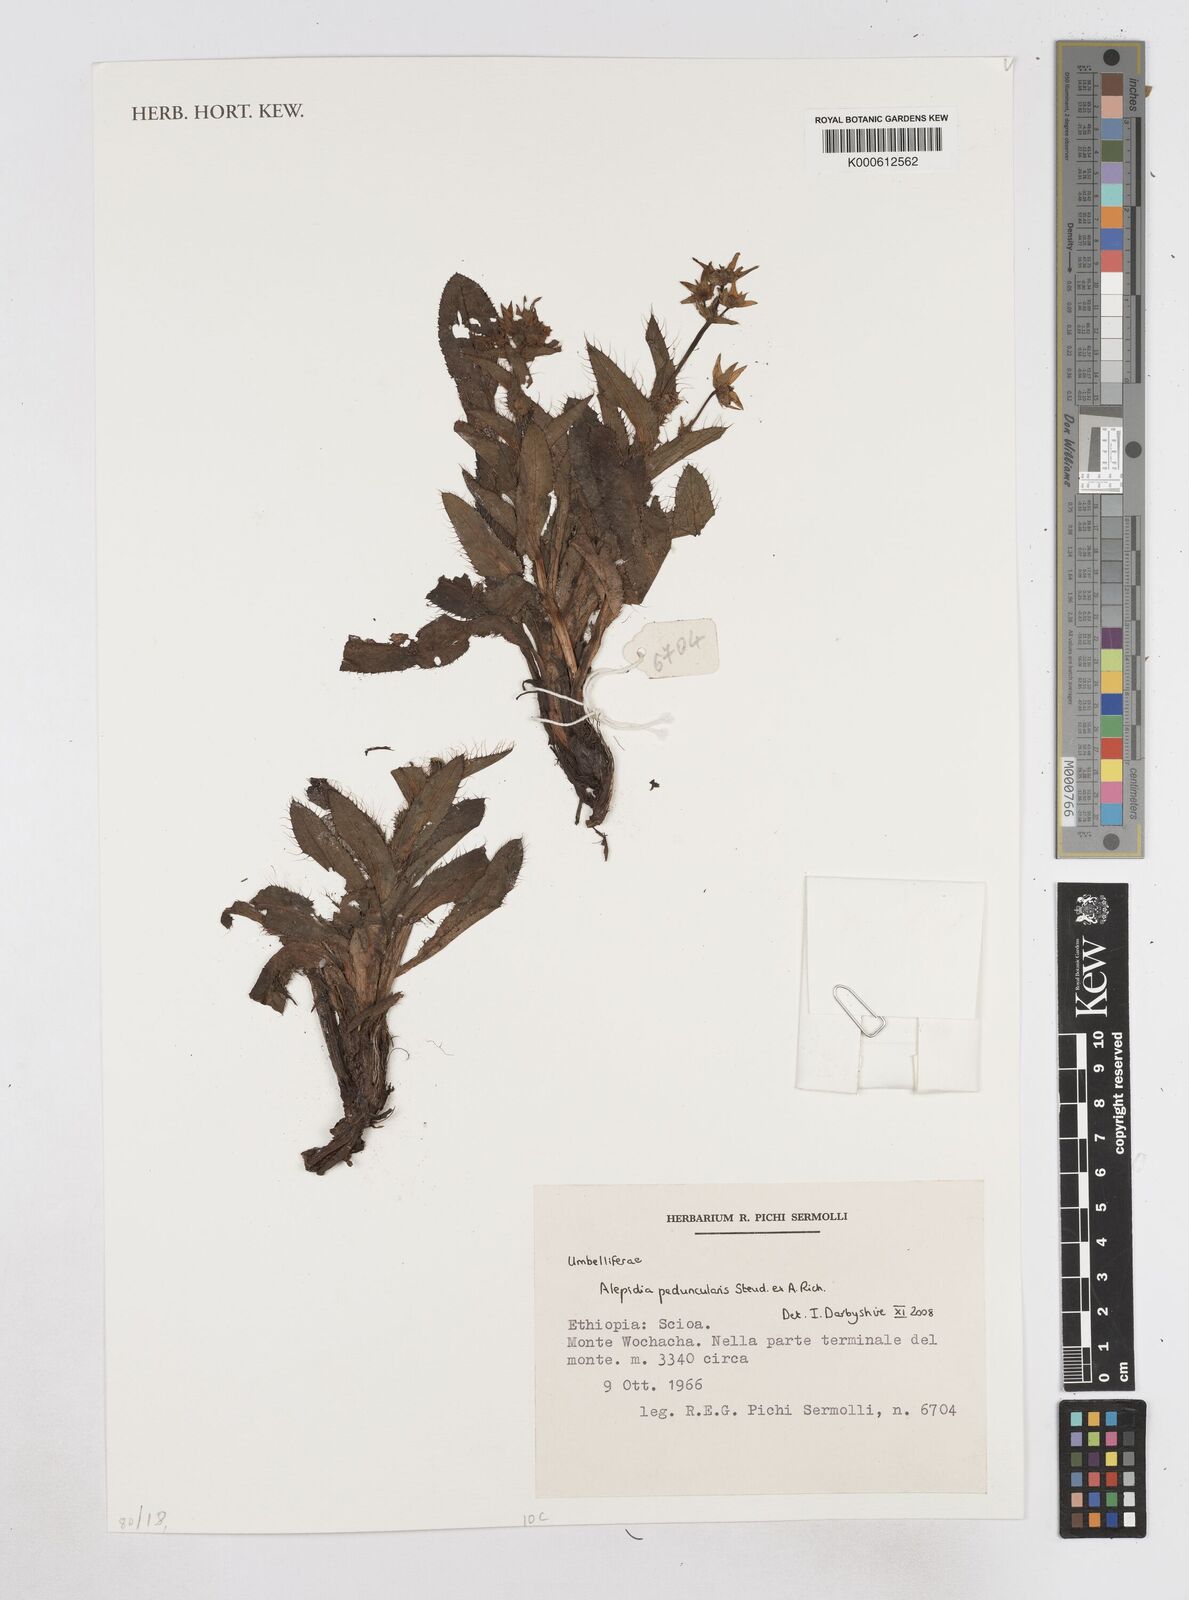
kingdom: Plantae
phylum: Tracheophyta
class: Magnoliopsida
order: Apiales
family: Apiaceae
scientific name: Apiaceae
